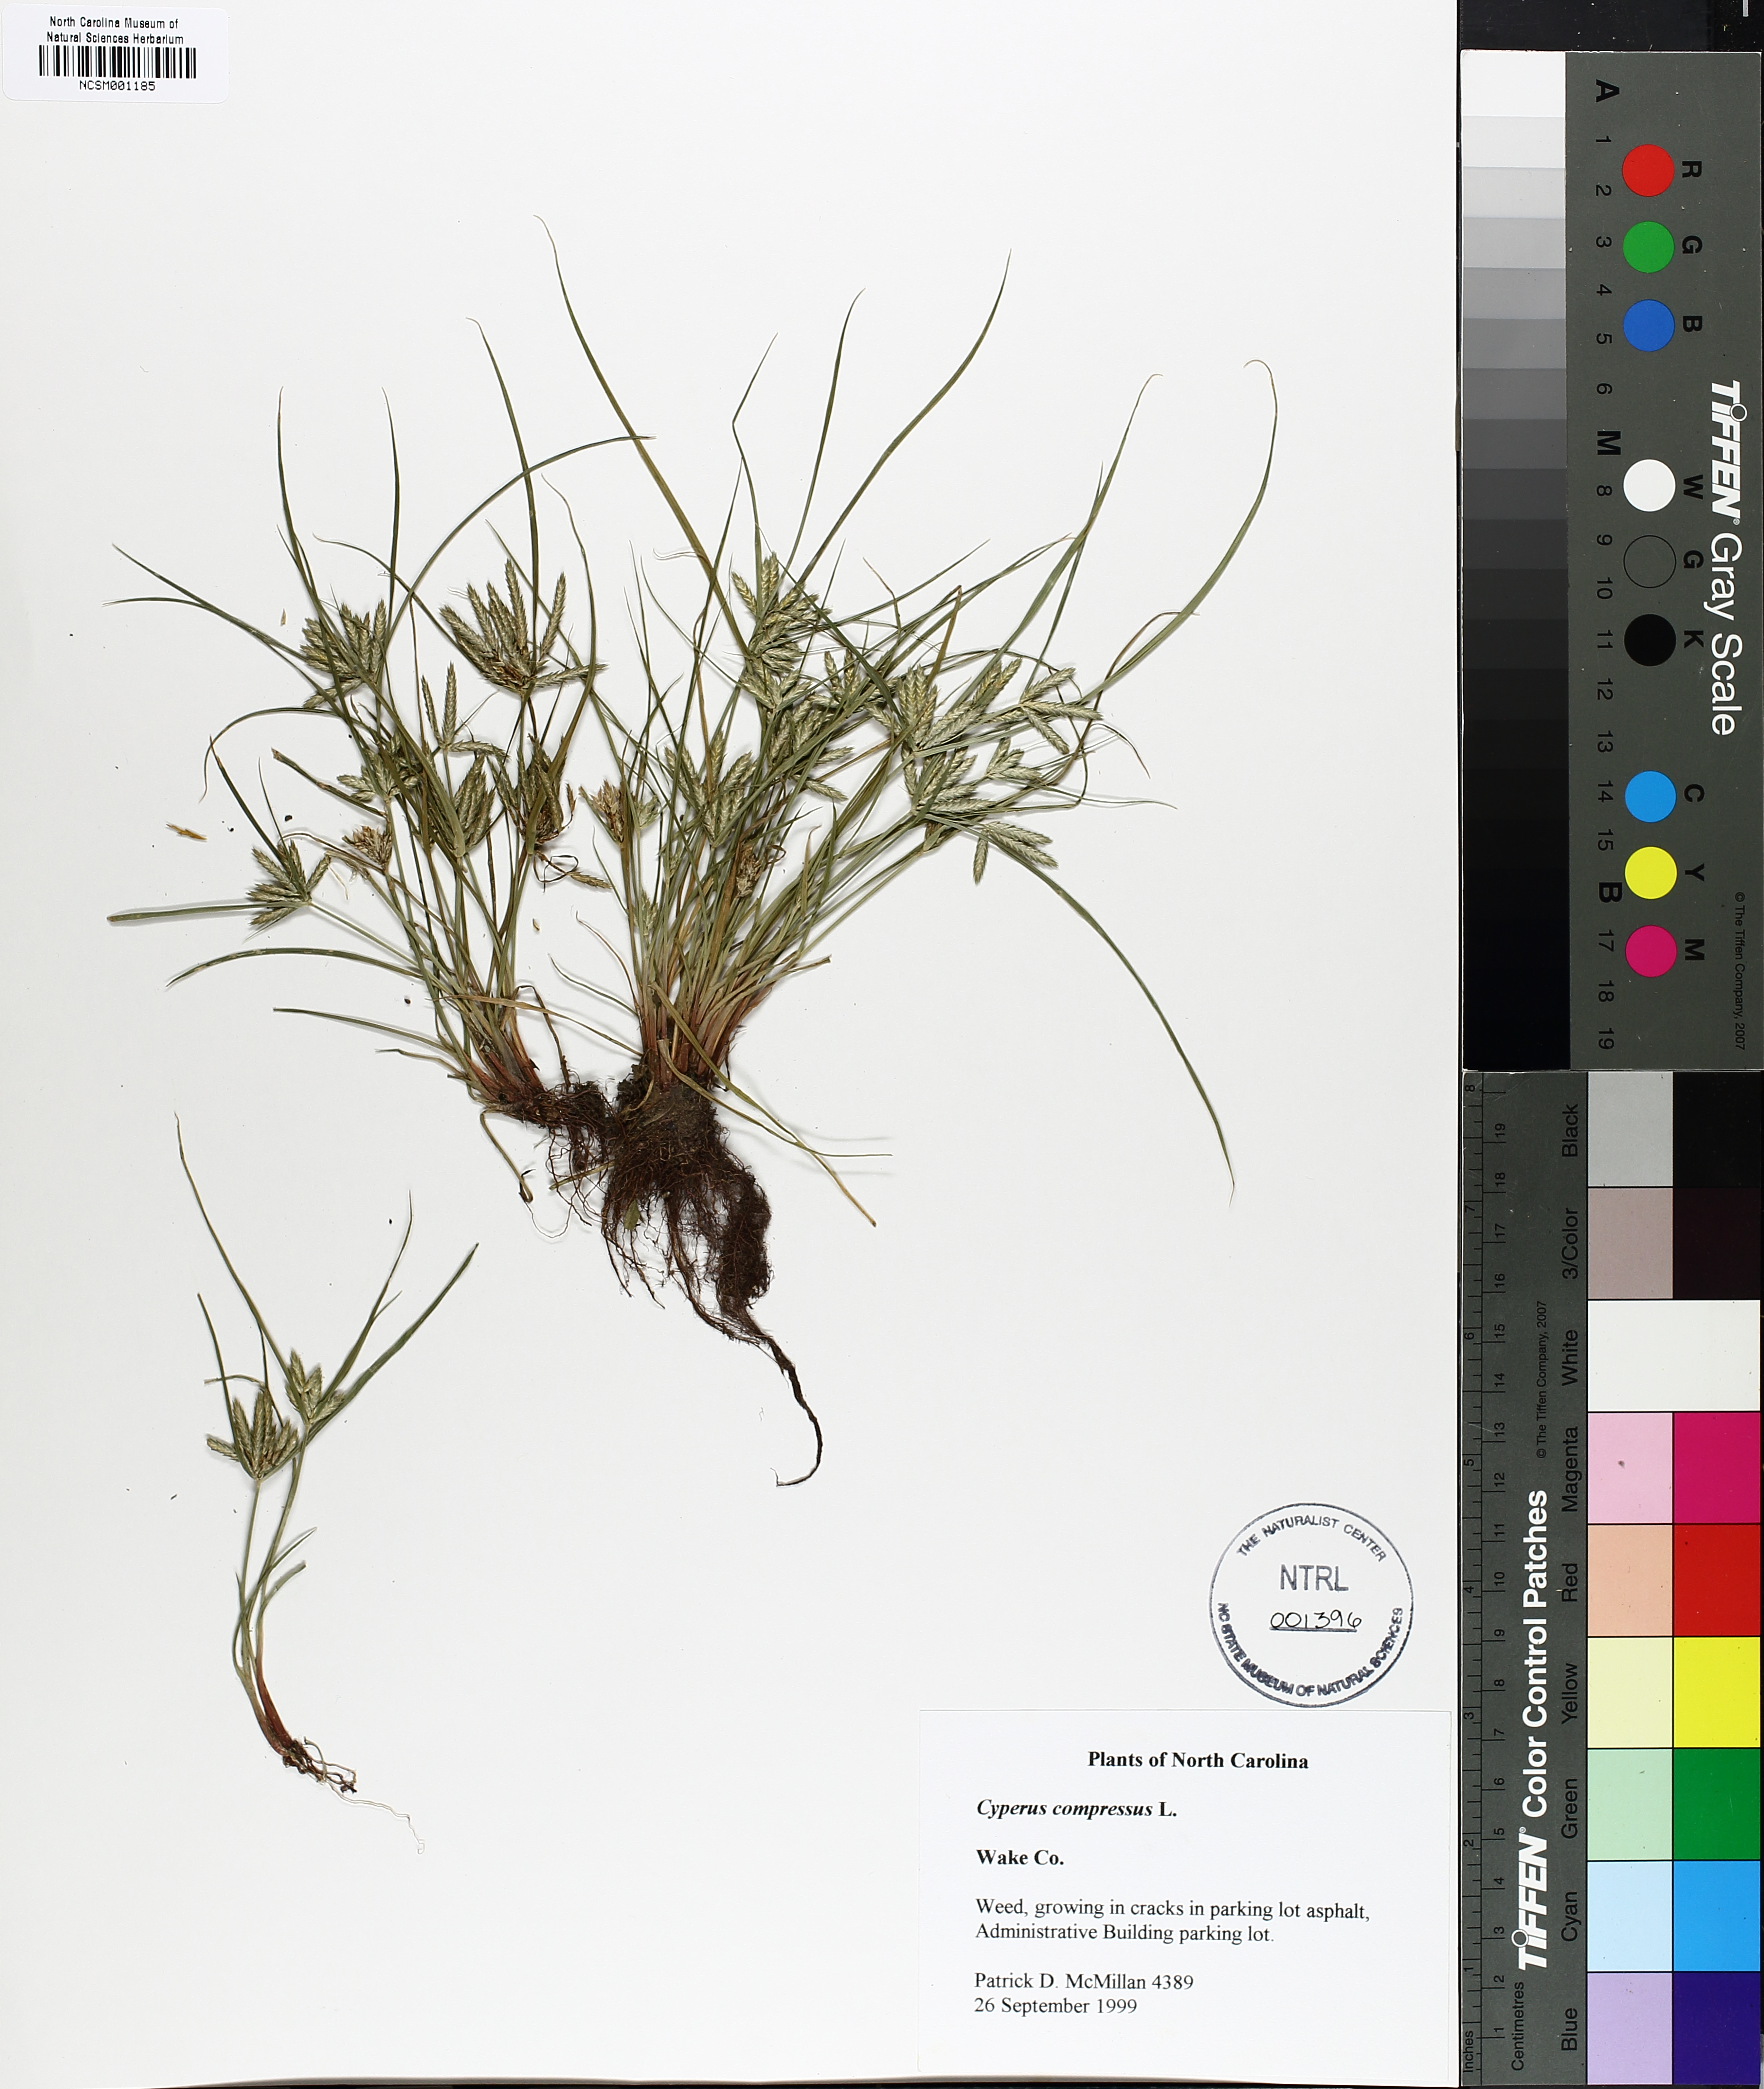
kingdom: Plantae
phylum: Tracheophyta
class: Liliopsida
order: Poales
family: Cyperaceae
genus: Cyperus
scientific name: Cyperus compressus
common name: Poorland flatsedge
